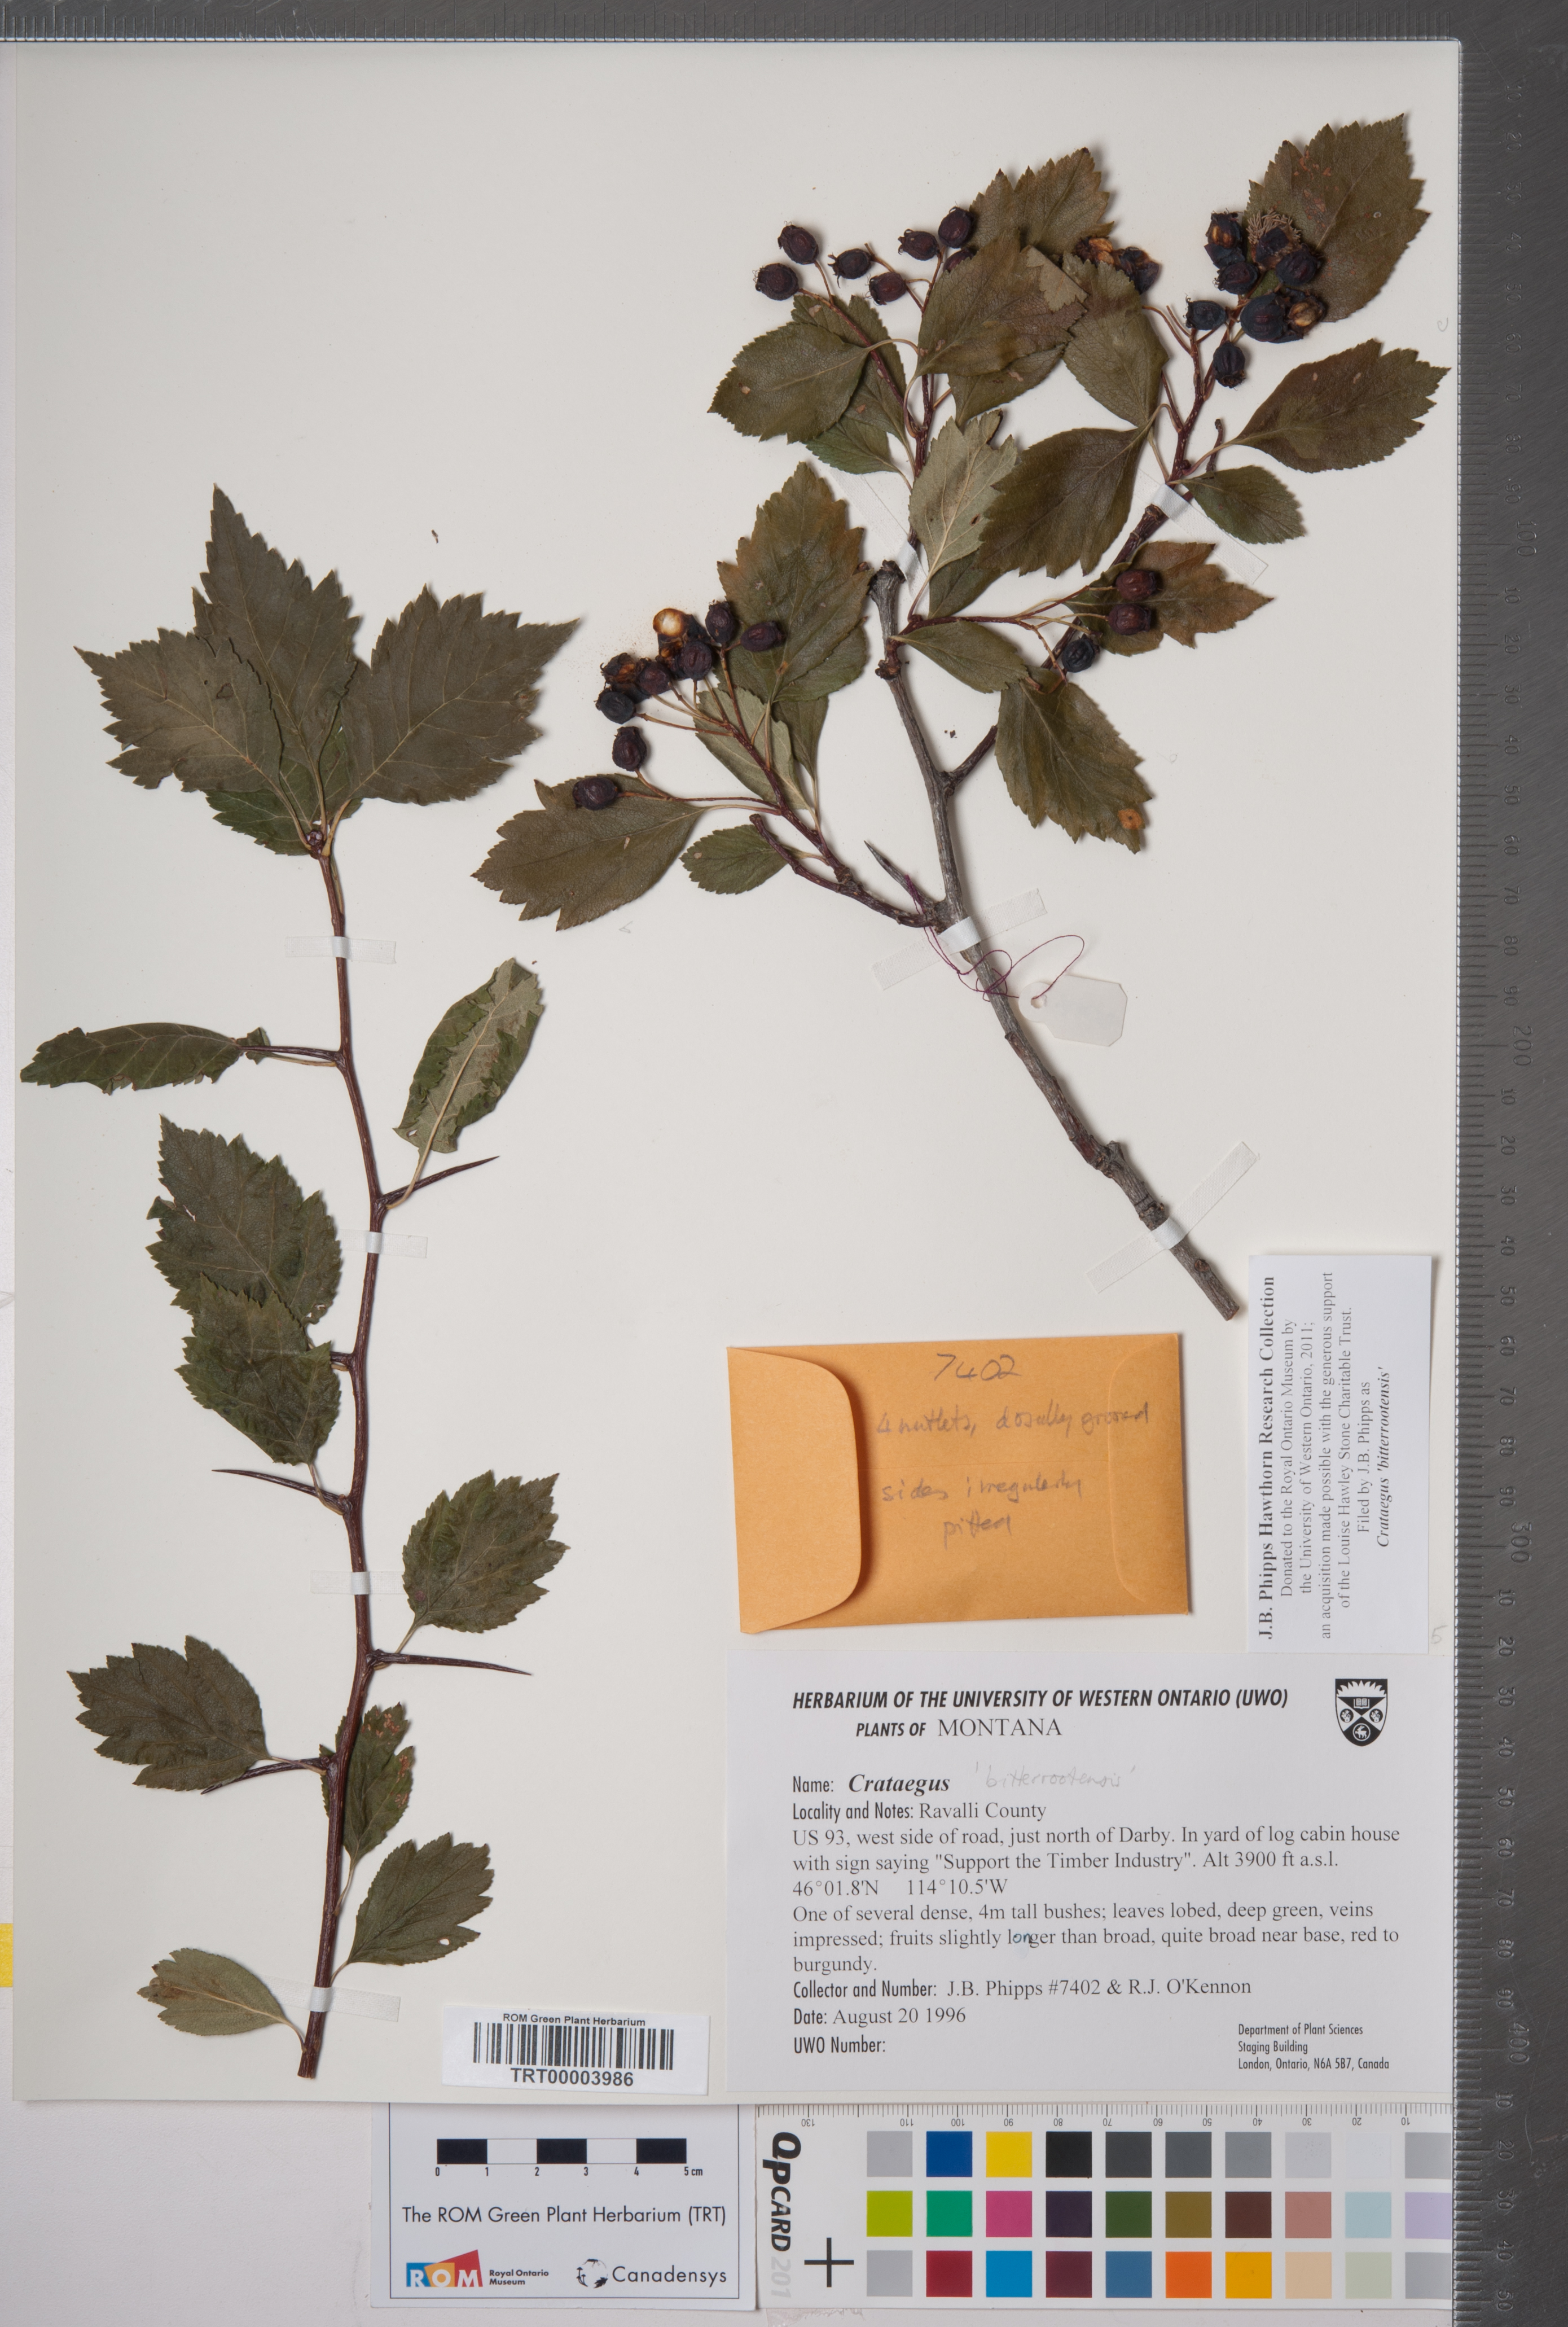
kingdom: Plantae
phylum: Tracheophyta
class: Magnoliopsida
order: Rosales
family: Rosaceae
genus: Crataegus
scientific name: Crataegus douglasii
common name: Black hawthorn
